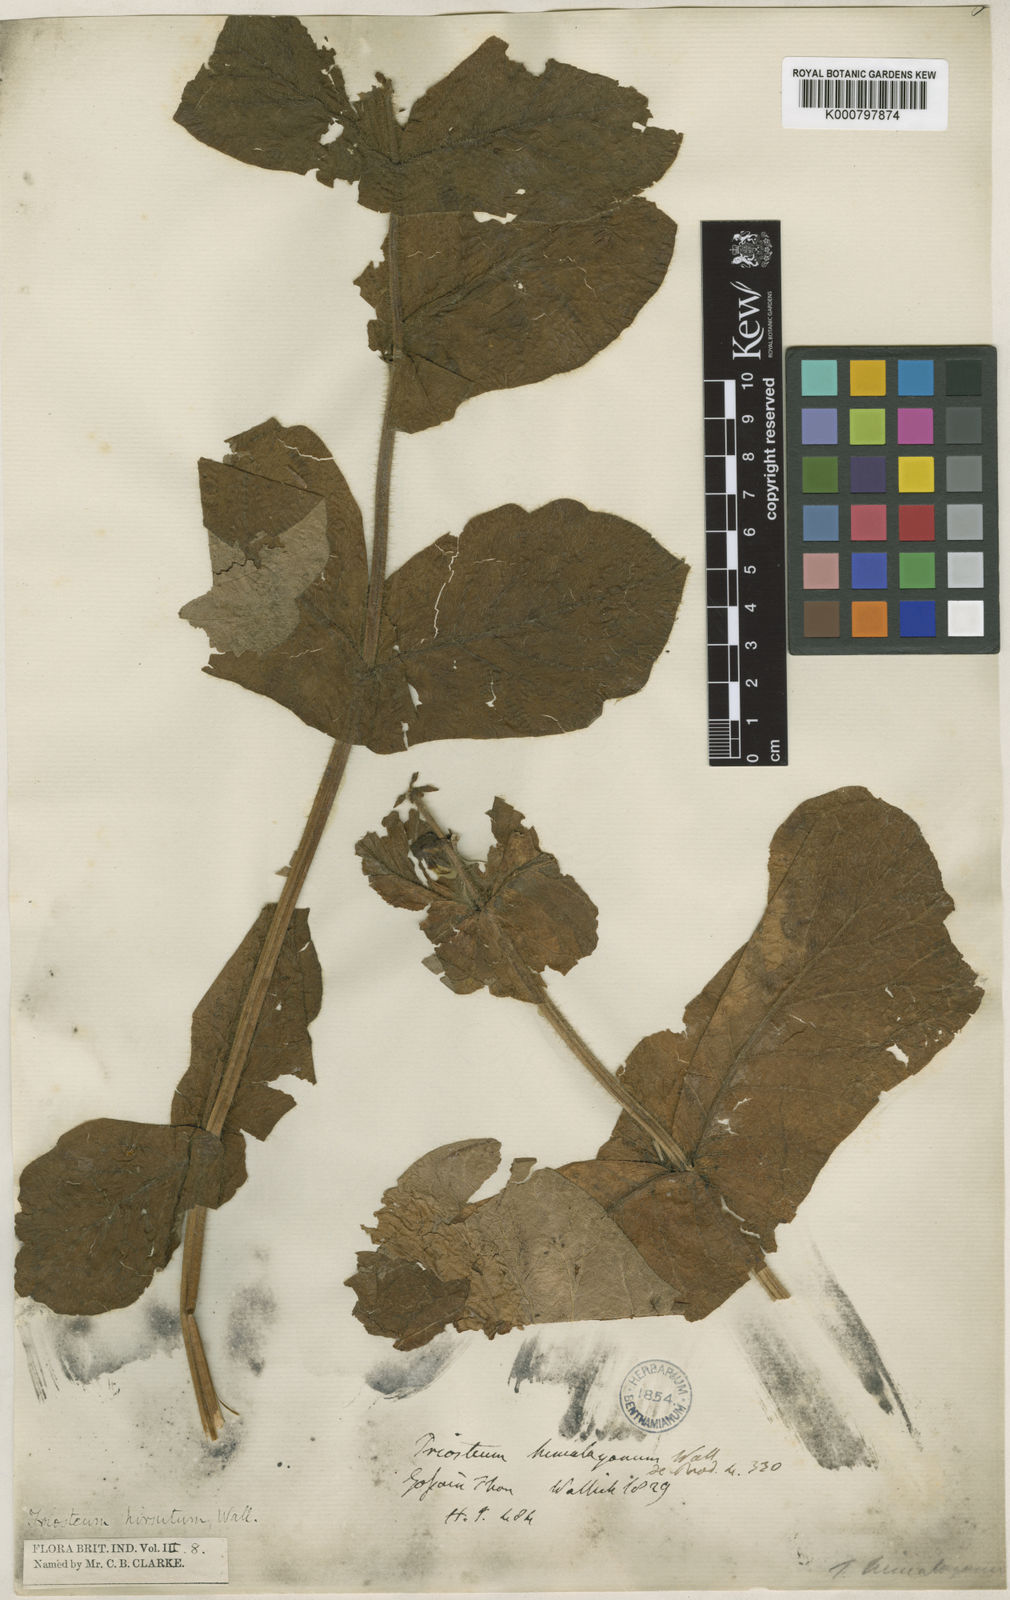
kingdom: Plantae
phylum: Tracheophyta
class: Magnoliopsida
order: Dipsacales
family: Caprifoliaceae
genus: Triosteum
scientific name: Triosteum himalayanum
